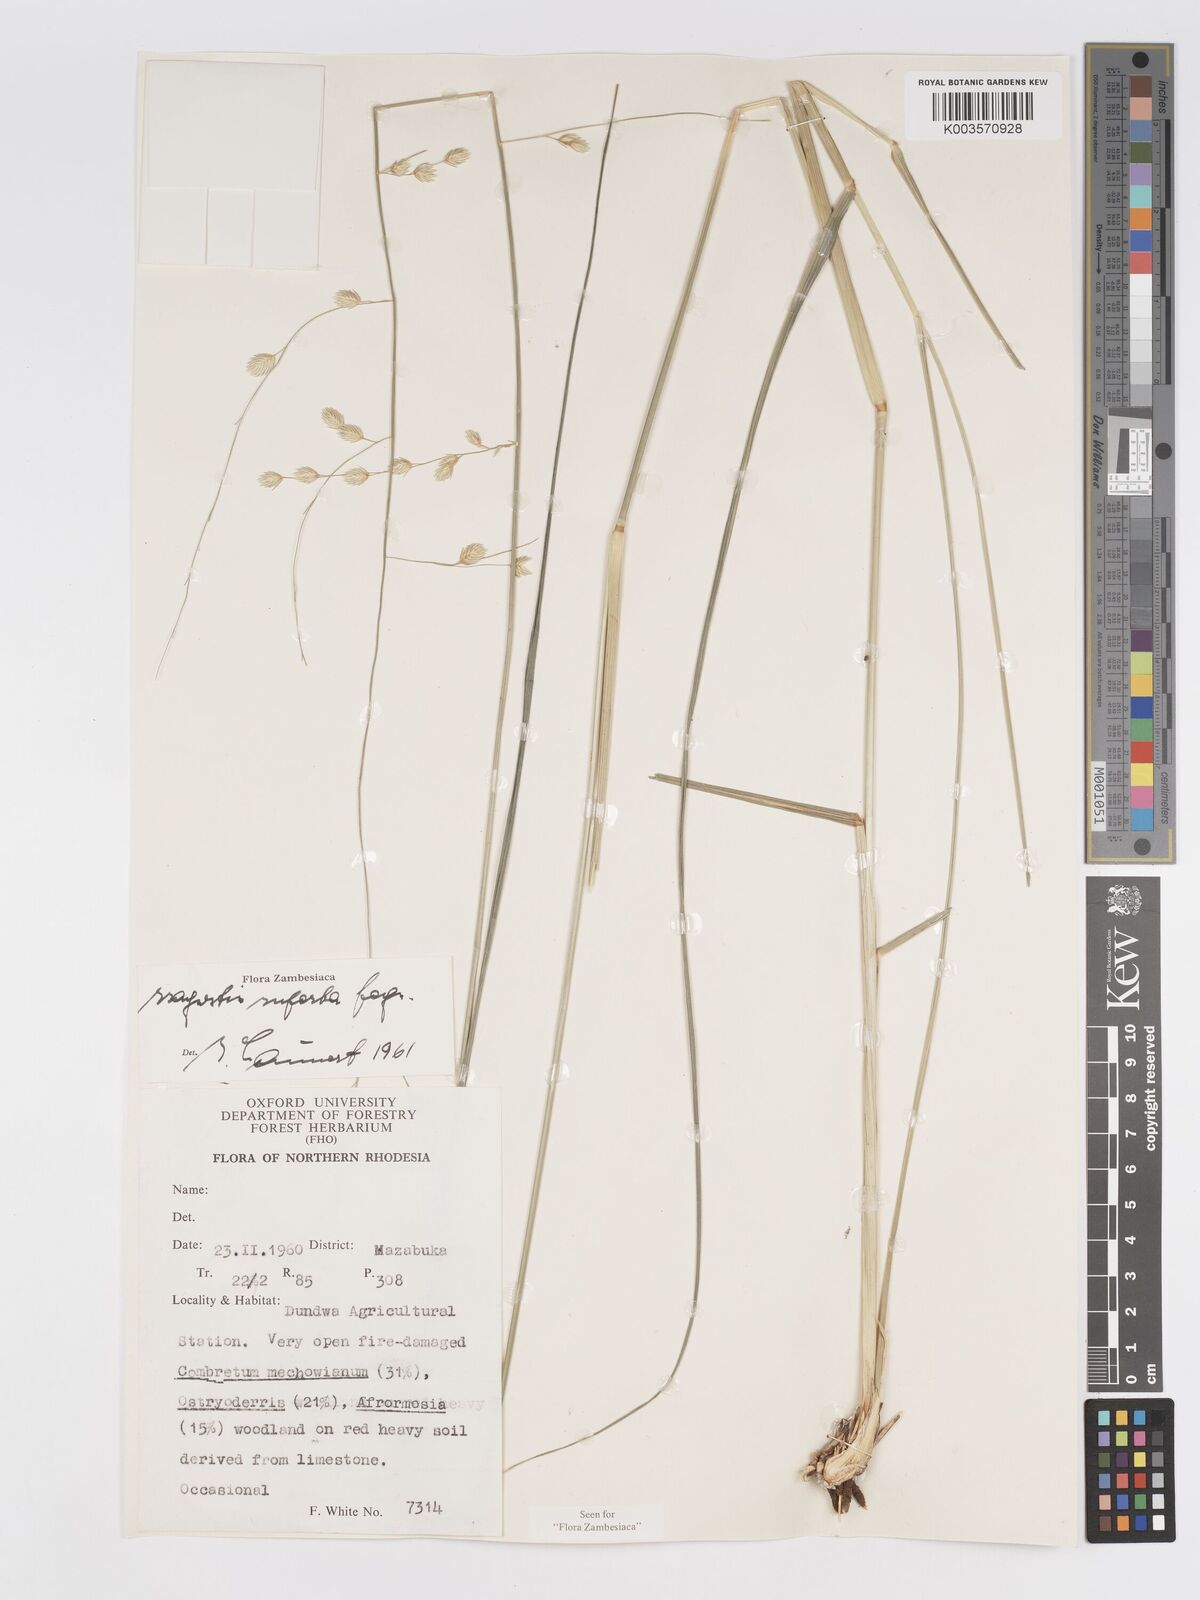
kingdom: Plantae
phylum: Tracheophyta
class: Liliopsida
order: Poales
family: Poaceae
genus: Eragrostis
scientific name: Eragrostis superba
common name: Wilman lovegrass
